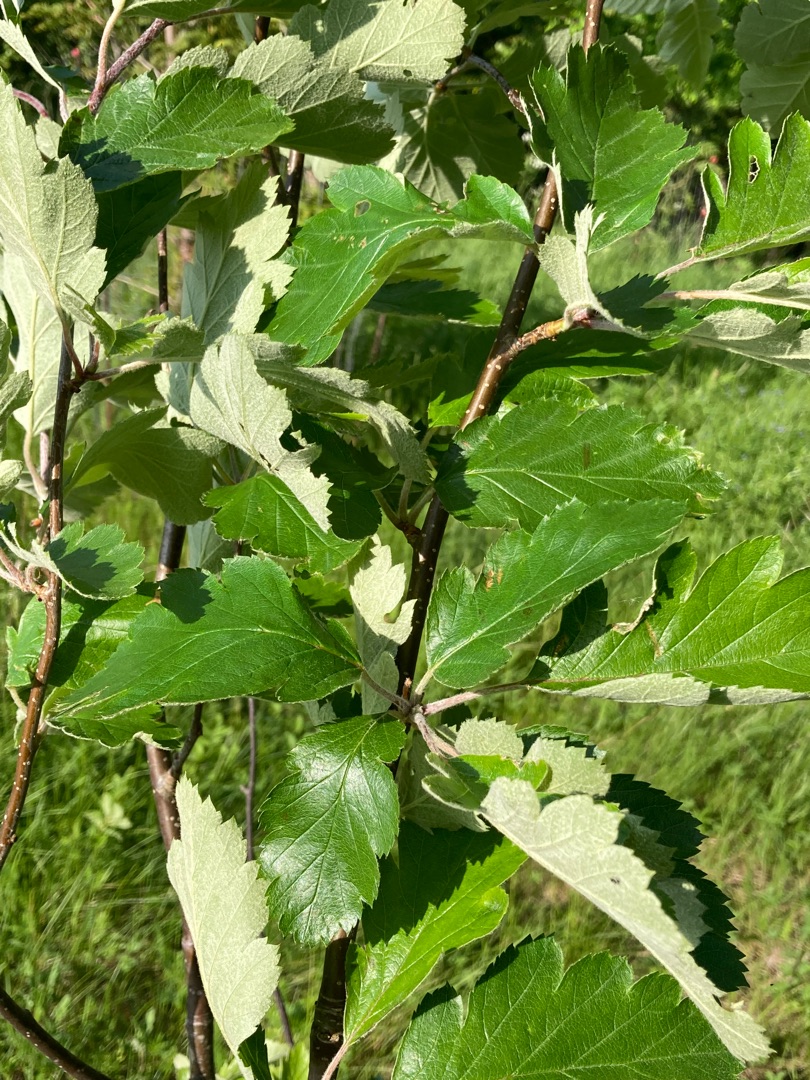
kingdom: Plantae
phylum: Tracheophyta
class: Magnoliopsida
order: Rosales
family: Rosaceae
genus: Scandosorbus
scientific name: Scandosorbus intermedia
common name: Selje-røn
